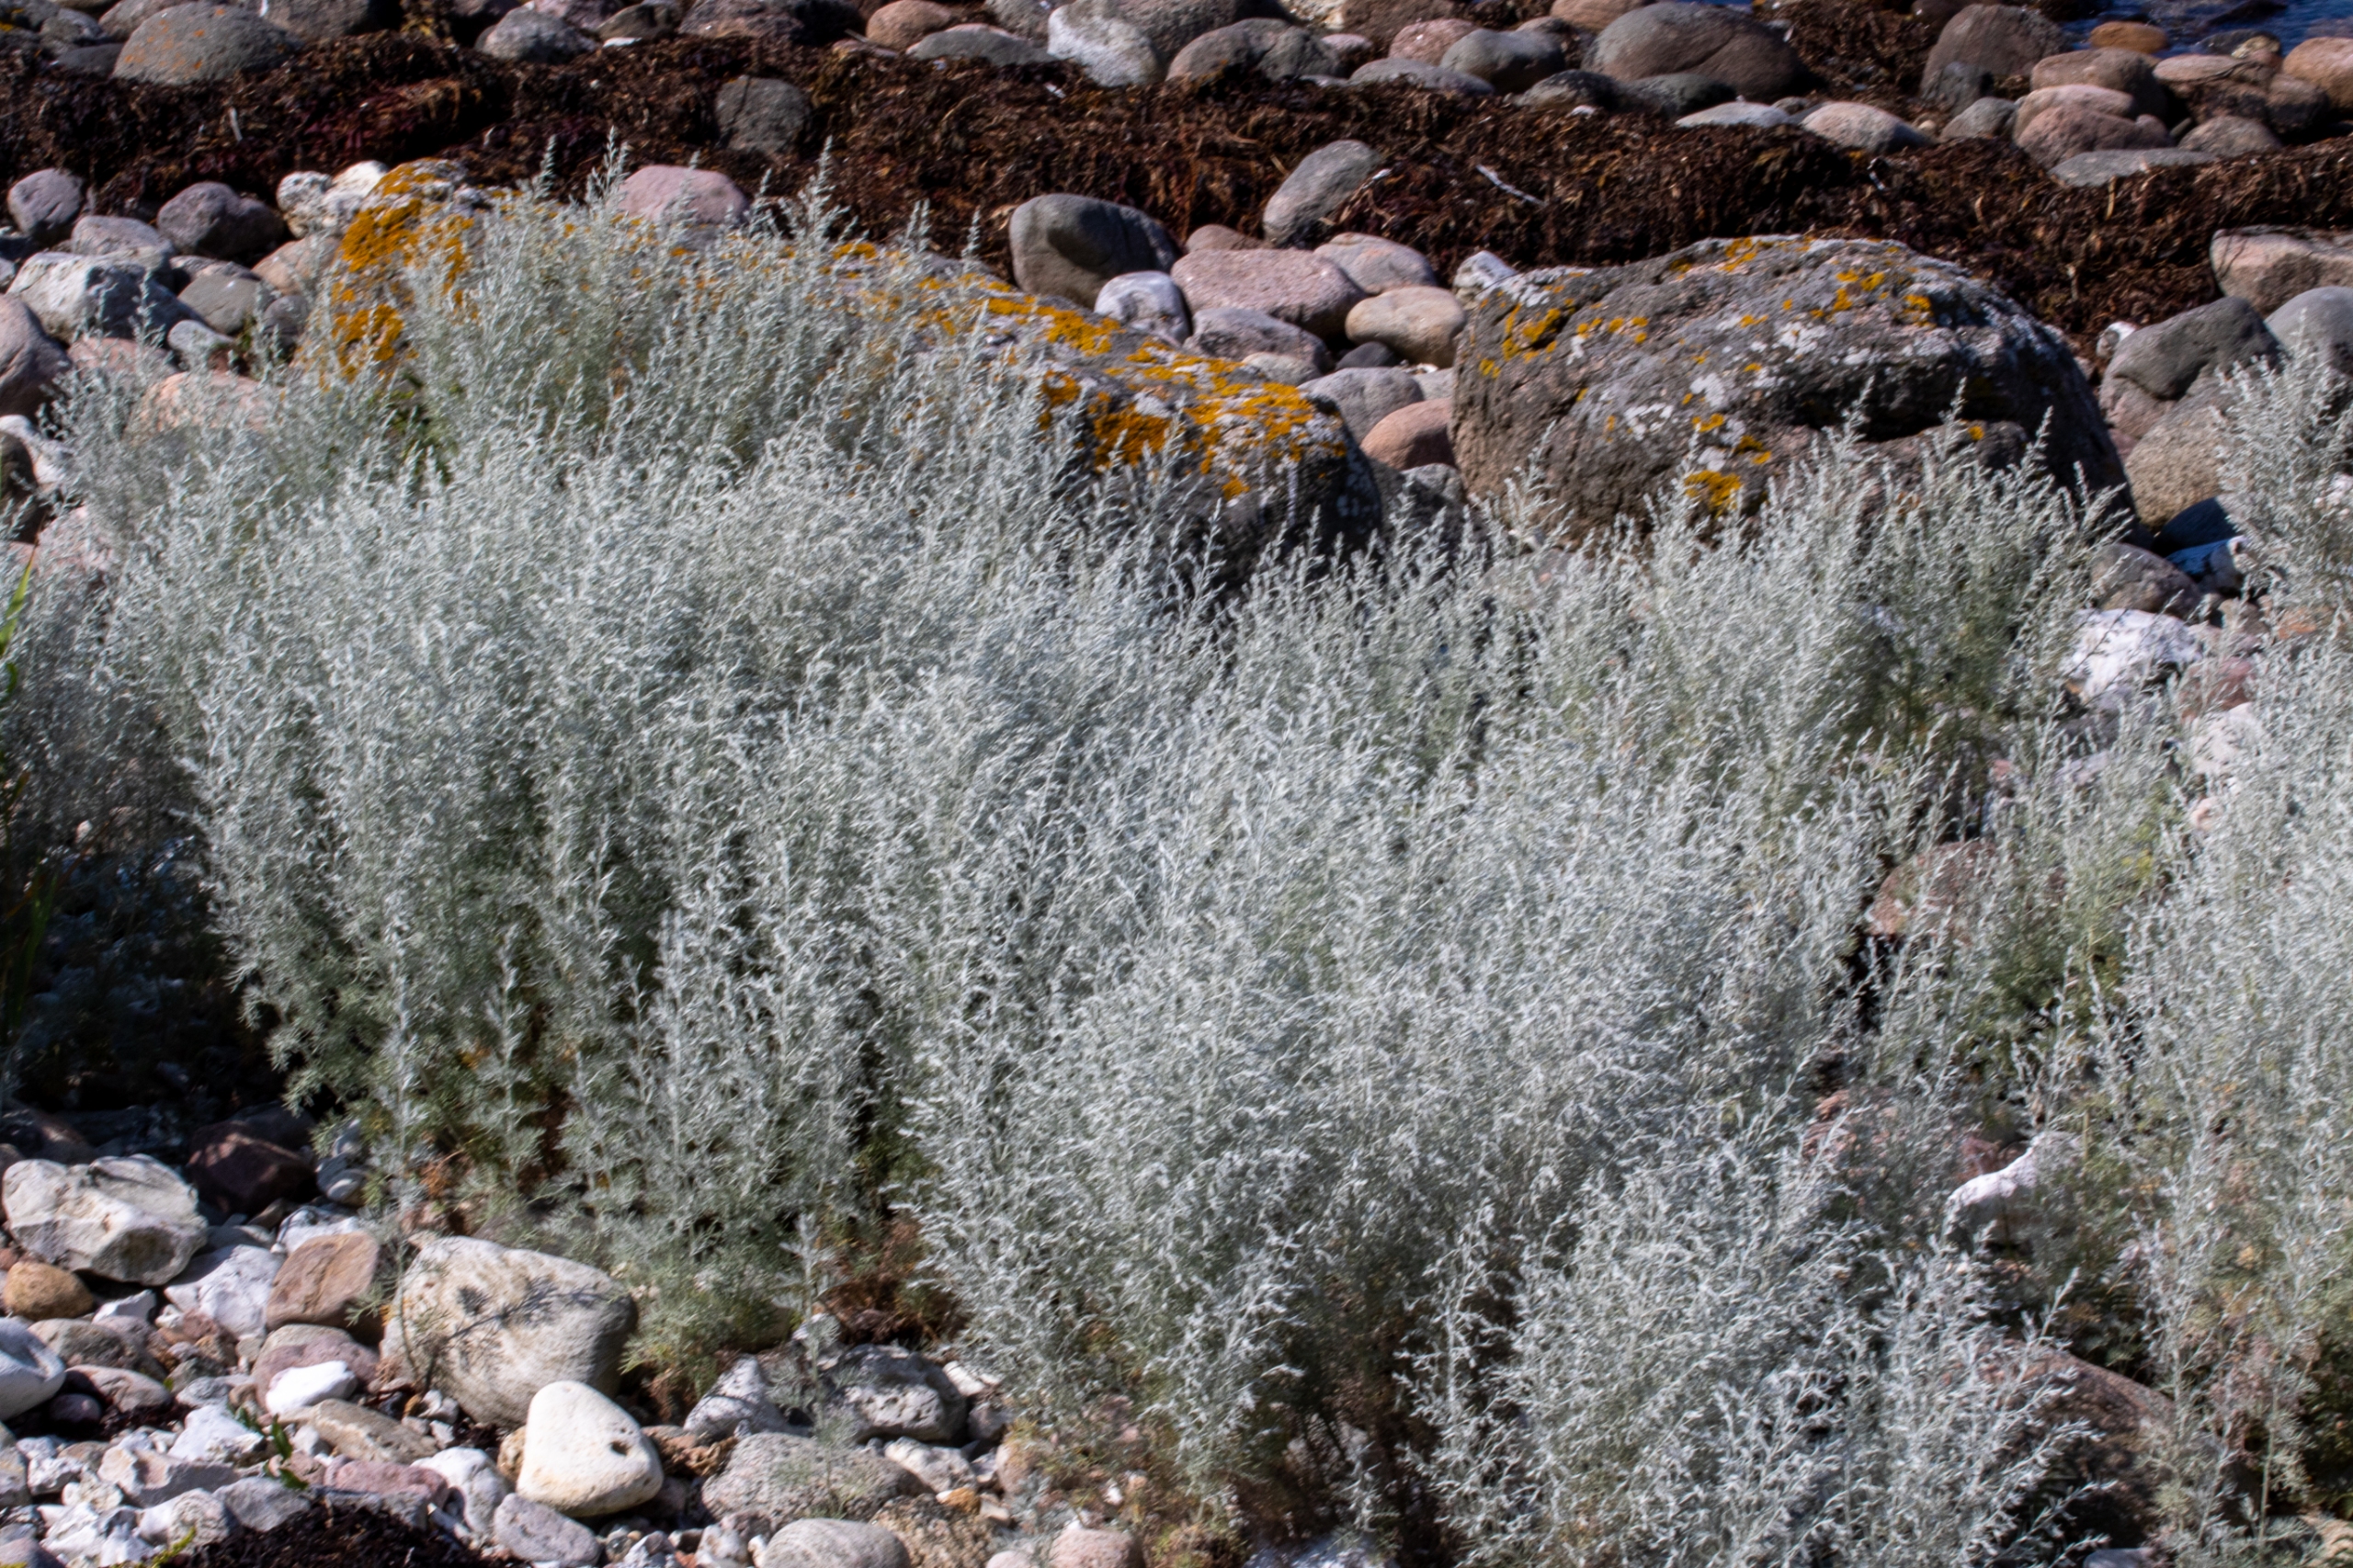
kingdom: Plantae
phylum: Tracheophyta
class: Magnoliopsida
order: Asterales
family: Asteraceae
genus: Artemisia
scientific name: Artemisia maritima
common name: Strandmalurt
